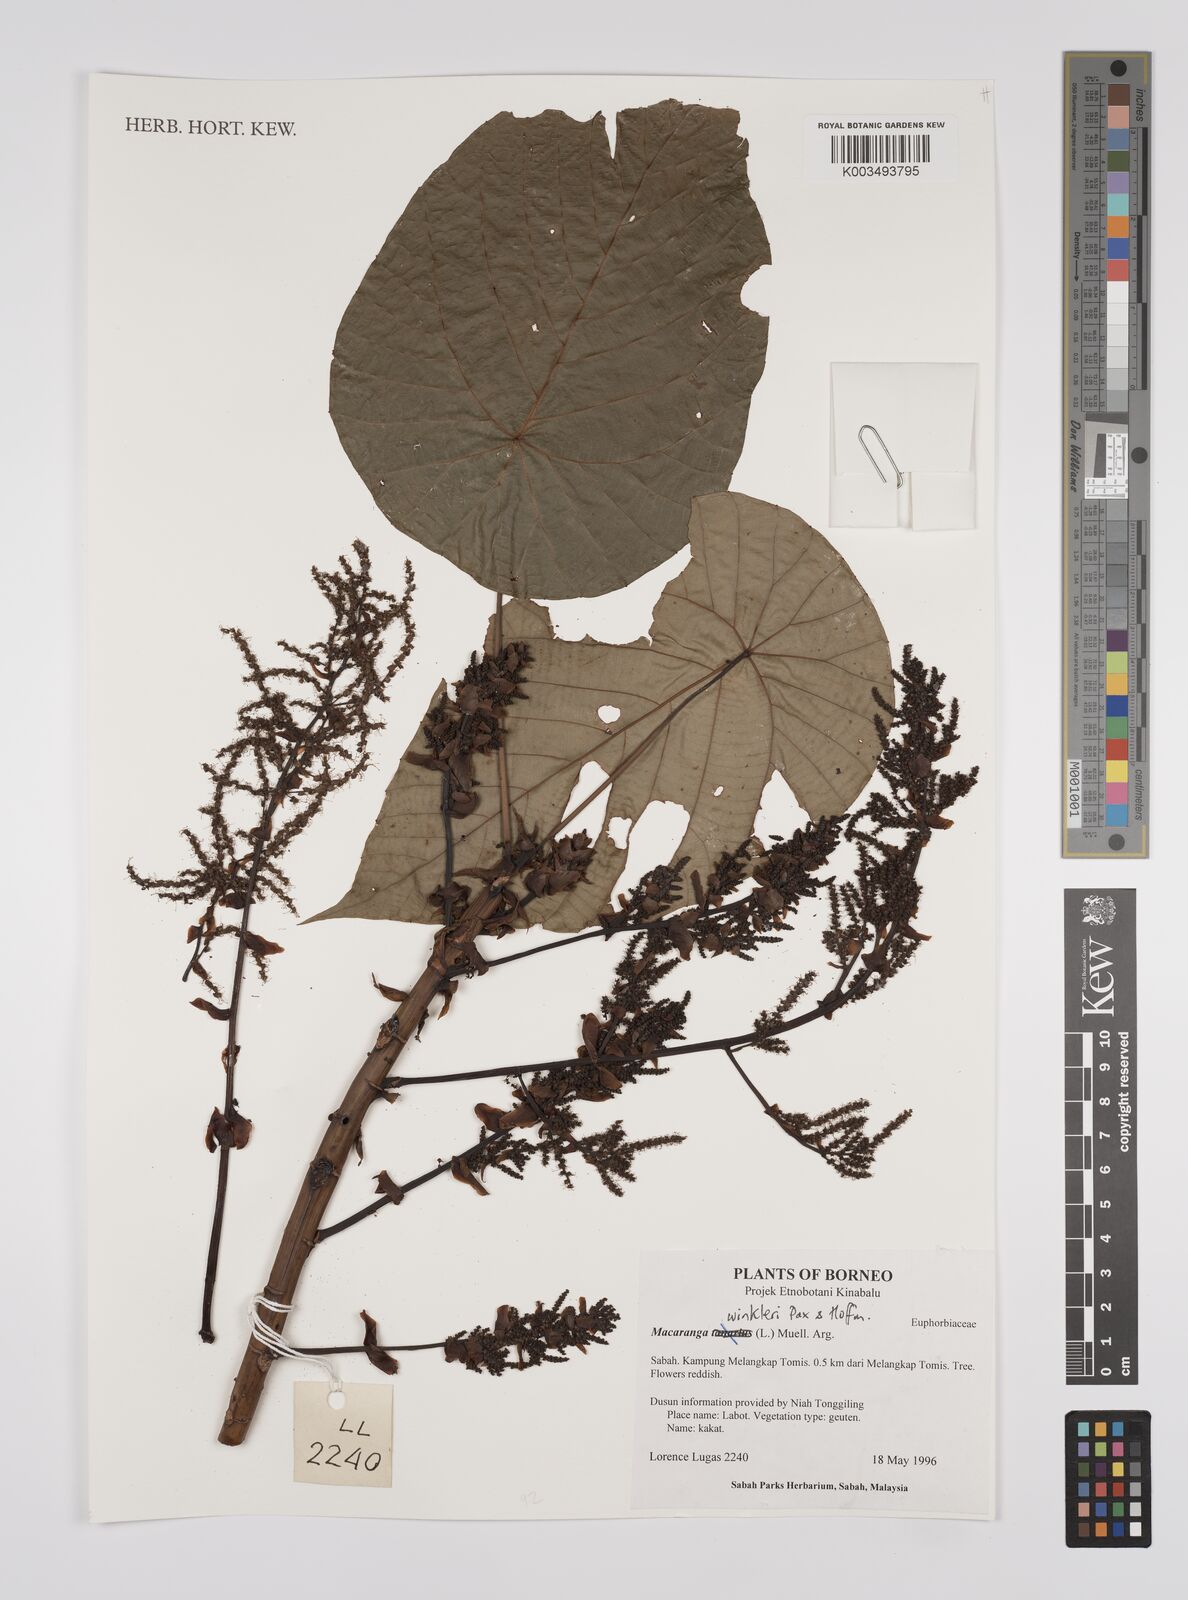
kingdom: Plantae
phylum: Tracheophyta
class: Magnoliopsida
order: Malpighiales
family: Euphorbiaceae
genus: Macaranga
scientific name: Macaranga winkleri
